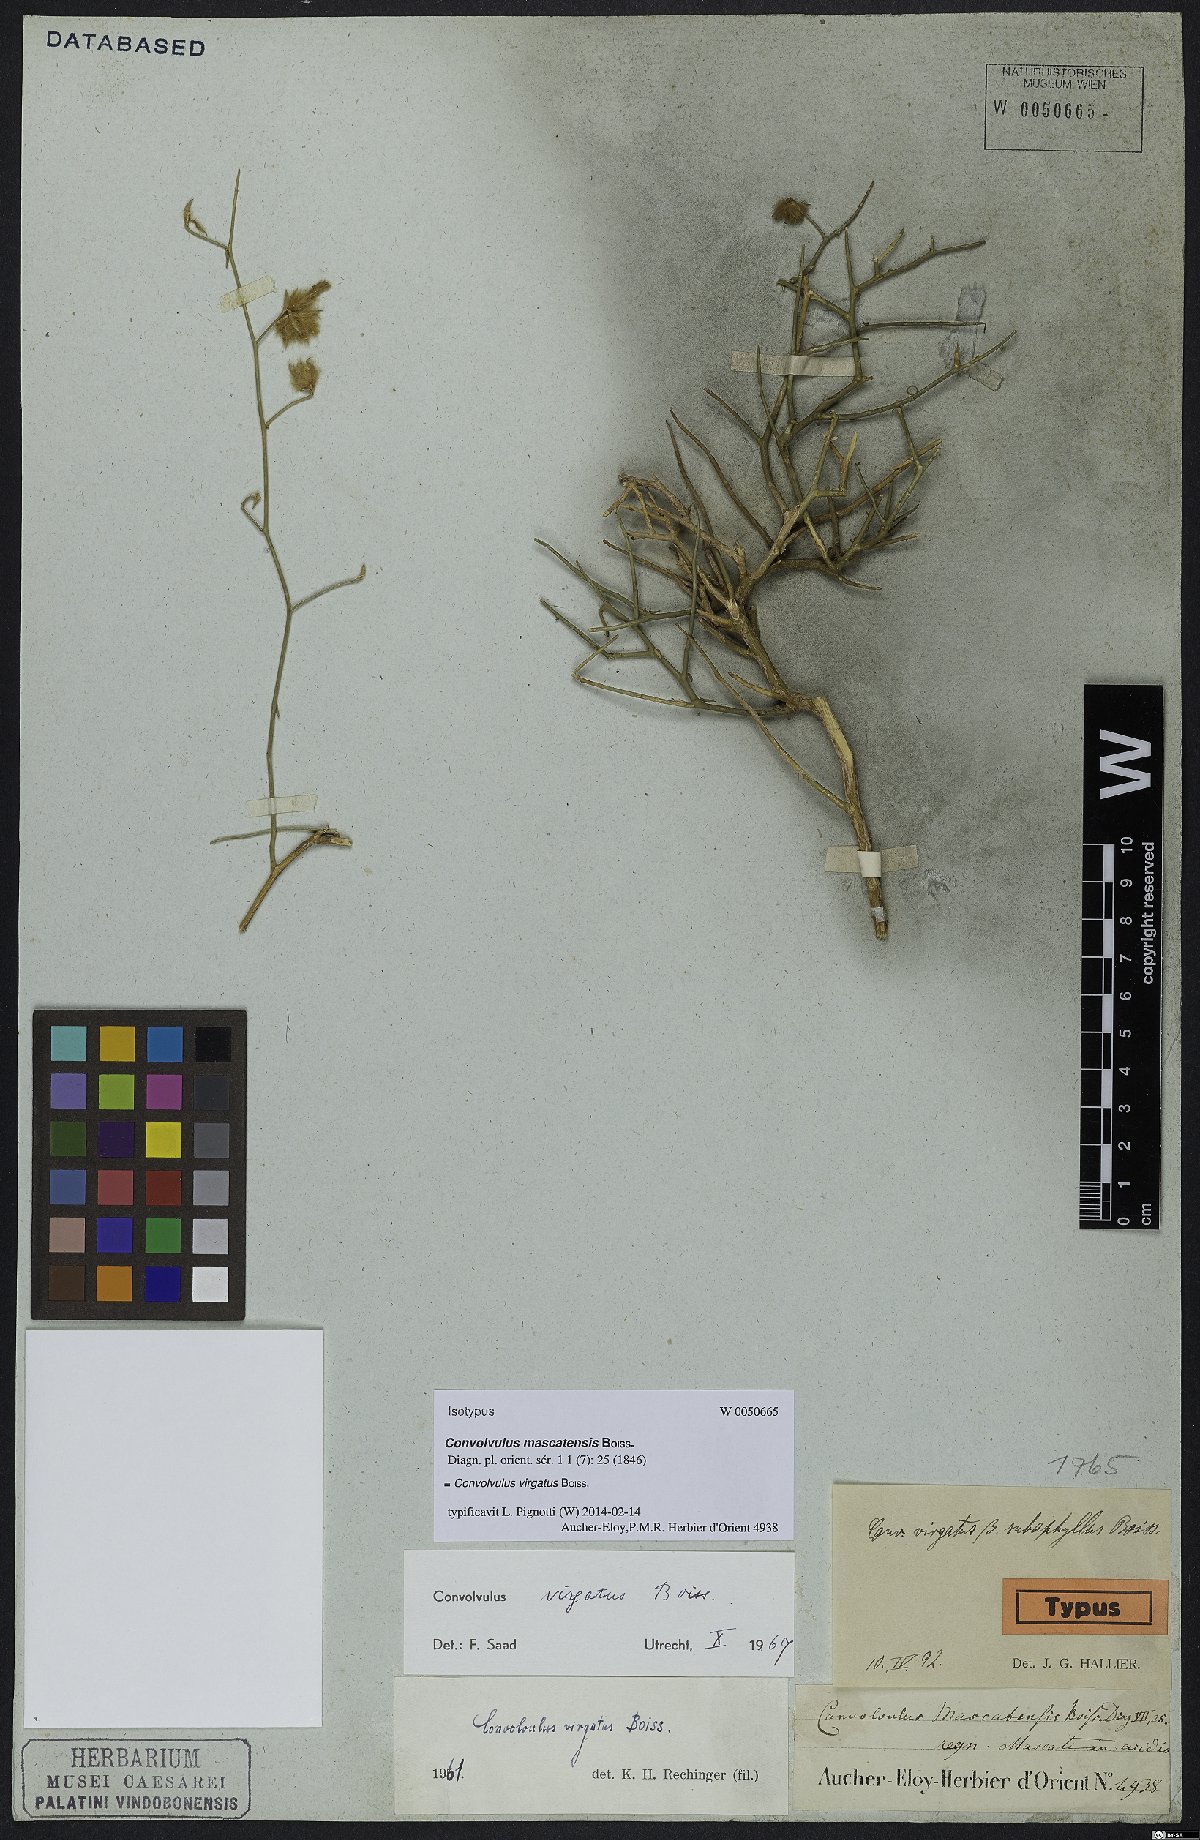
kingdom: Plantae
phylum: Tracheophyta
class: Magnoliopsida
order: Solanales
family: Convolvulaceae
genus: Convolvulus
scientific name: Convolvulus virgatus
